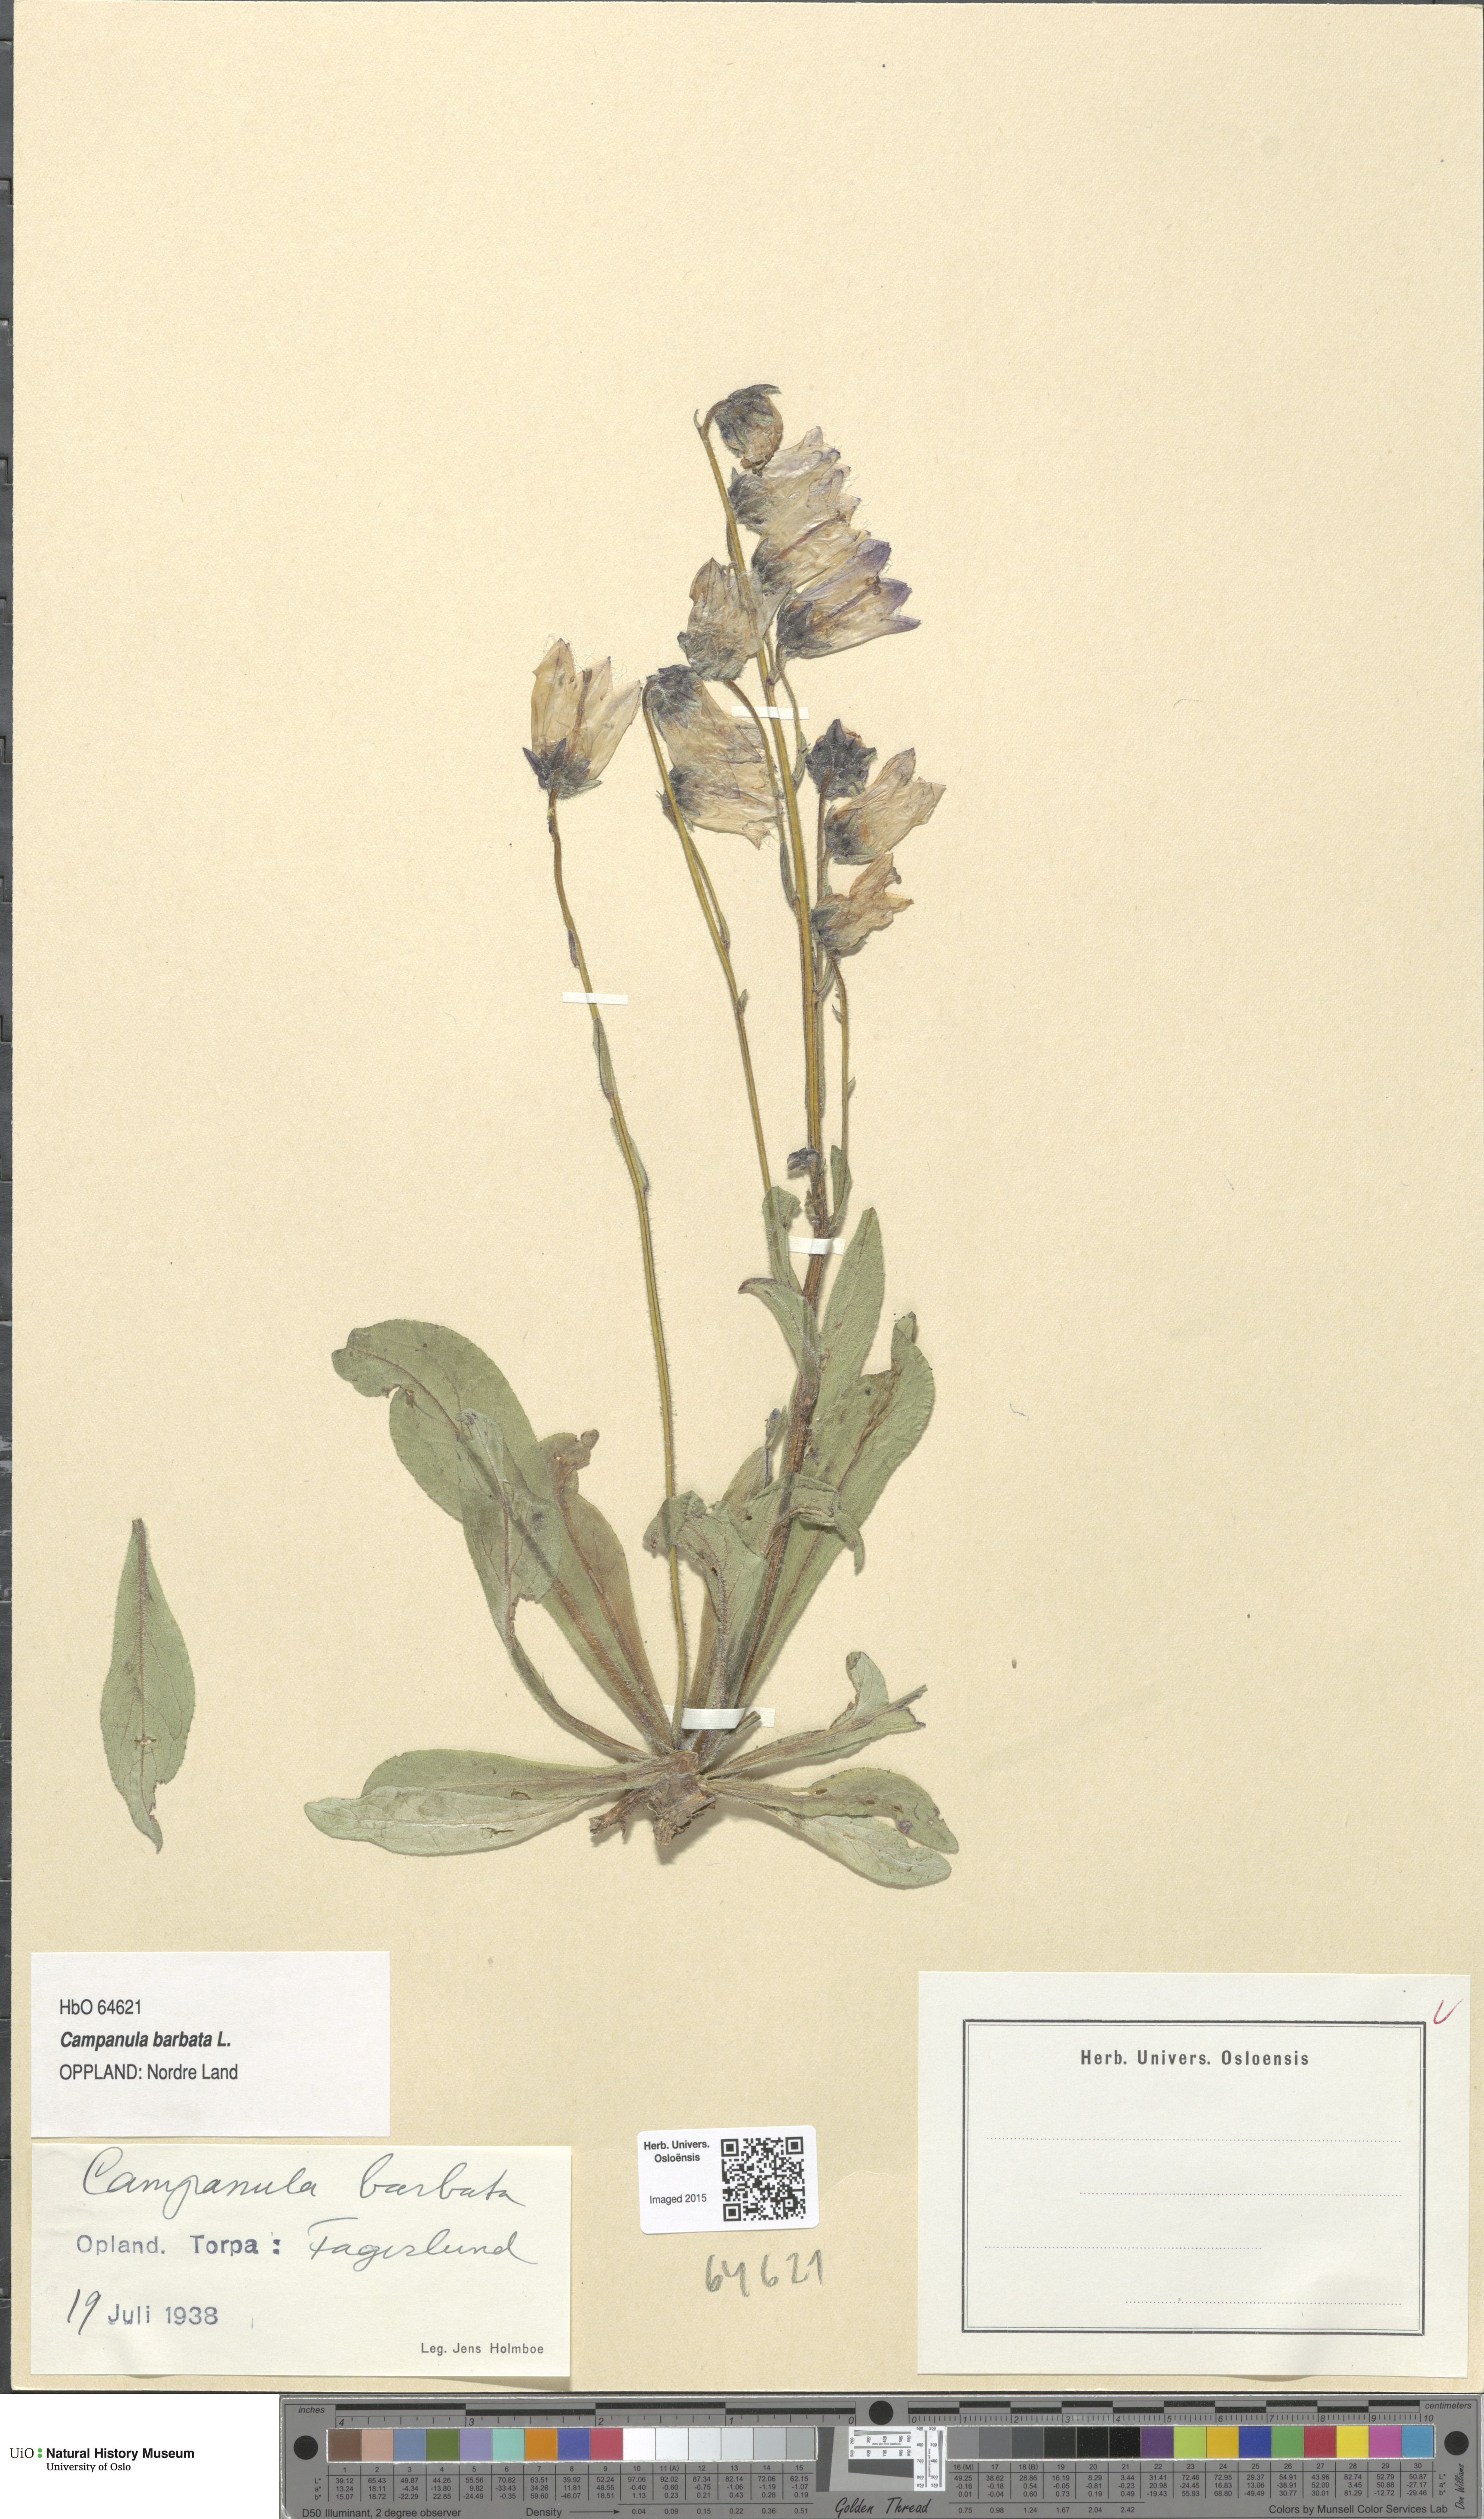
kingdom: Plantae
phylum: Tracheophyta
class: Magnoliopsida
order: Asterales
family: Campanulaceae
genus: Campanula
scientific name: Campanula barbata
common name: Bearded bellflower
